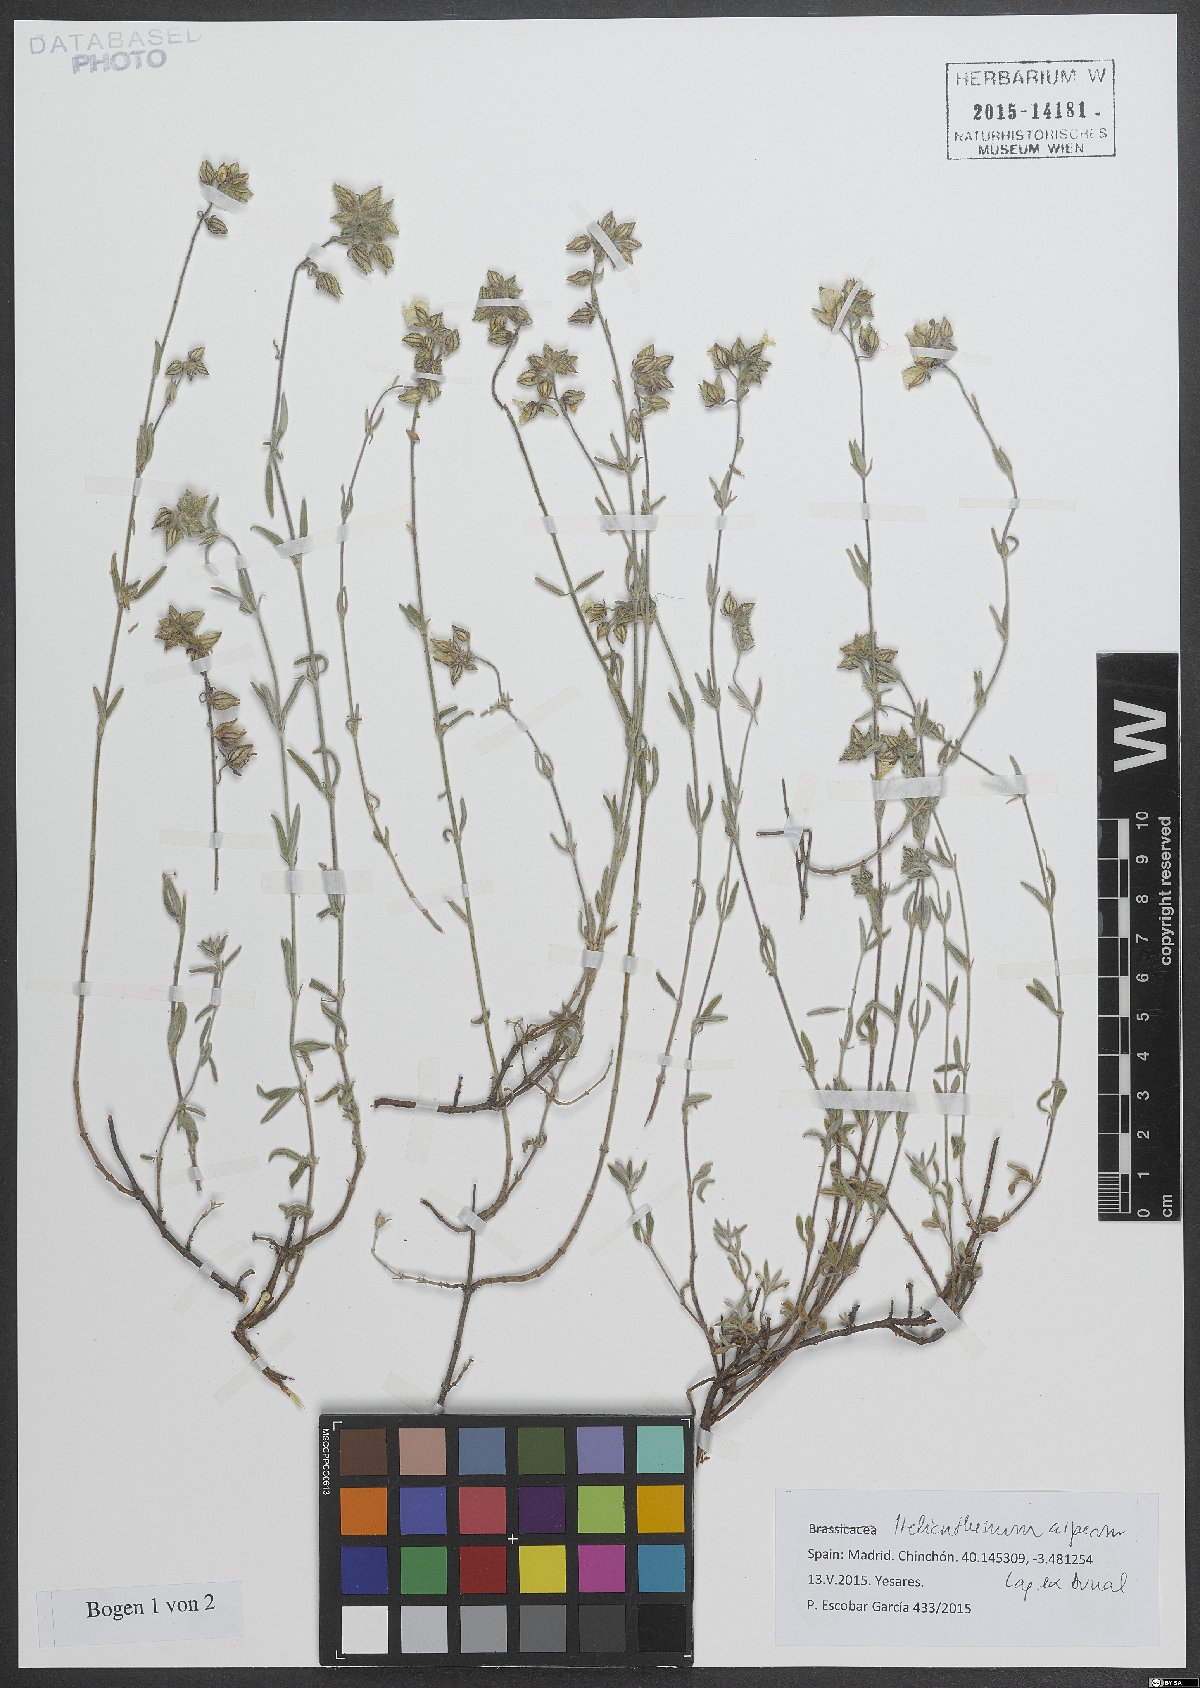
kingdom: Plantae
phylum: Tracheophyta
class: Magnoliopsida
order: Malvales
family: Cistaceae
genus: Helianthemum
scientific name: Helianthemum asperum
